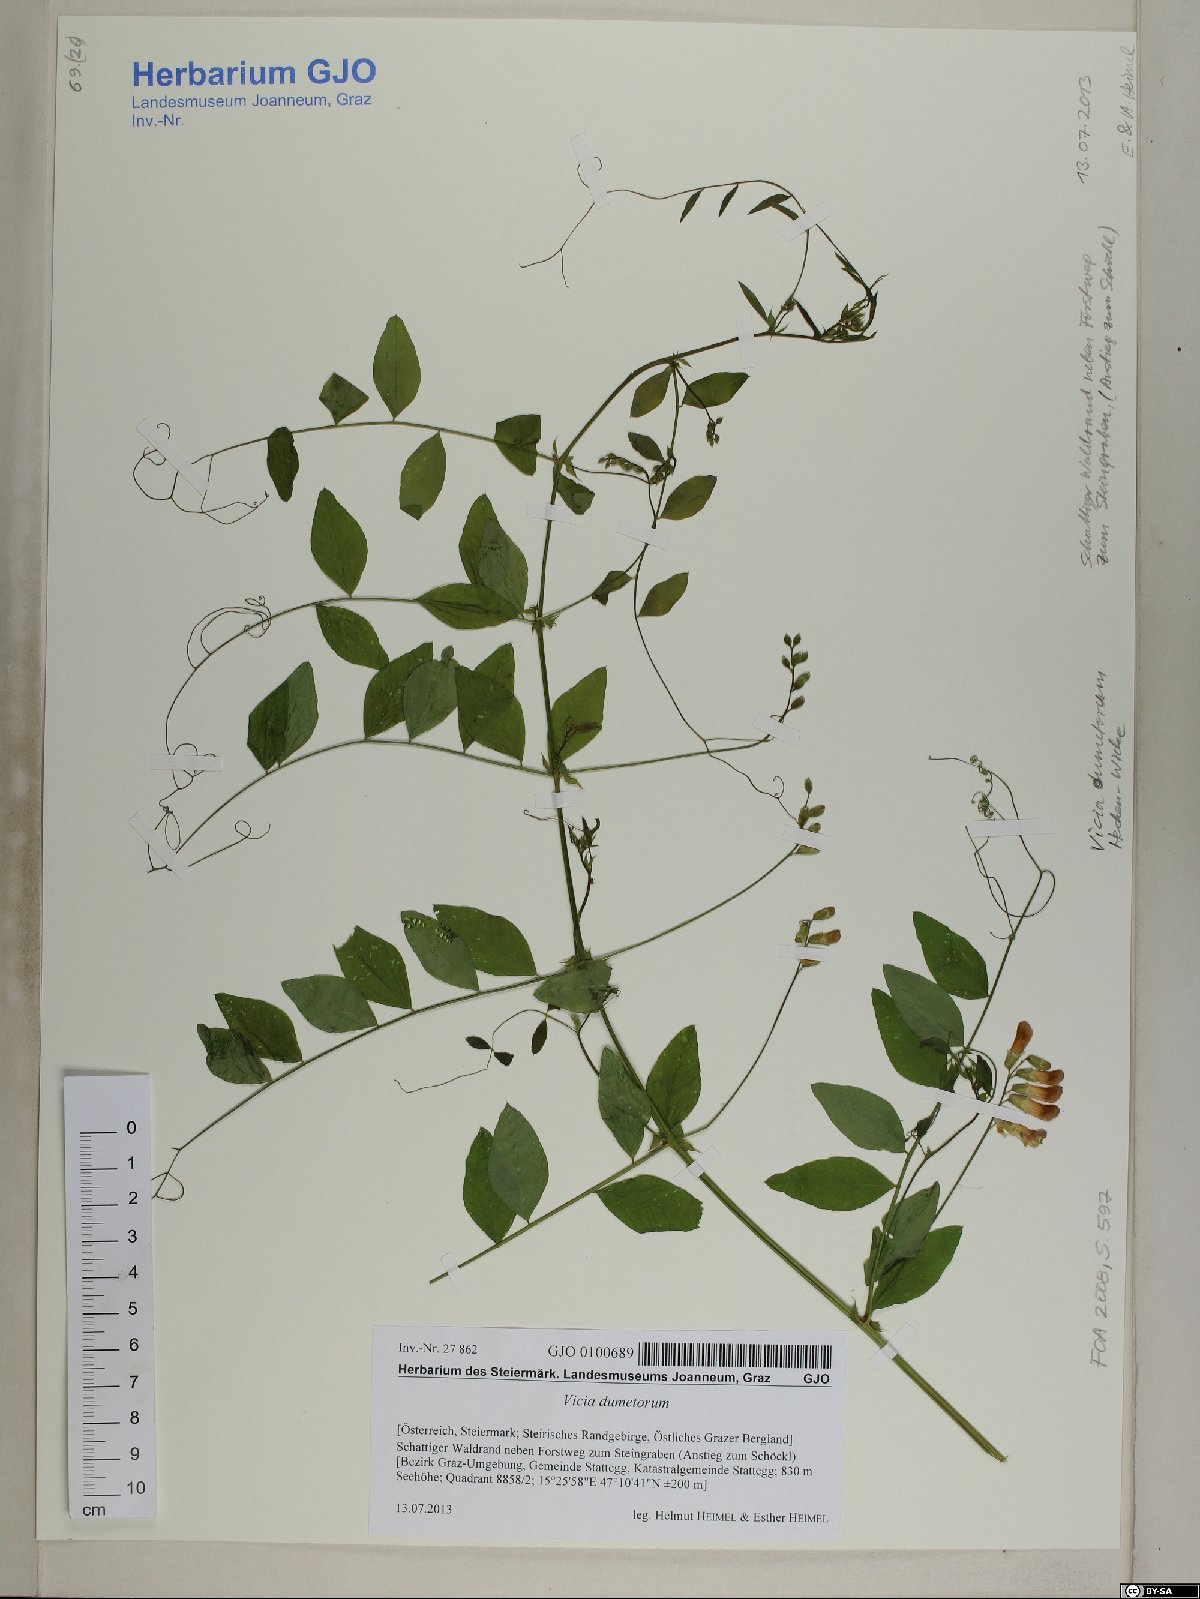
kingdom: Plantae
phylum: Tracheophyta
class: Magnoliopsida
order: Fabales
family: Fabaceae
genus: Vicia
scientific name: Vicia dumetorum
